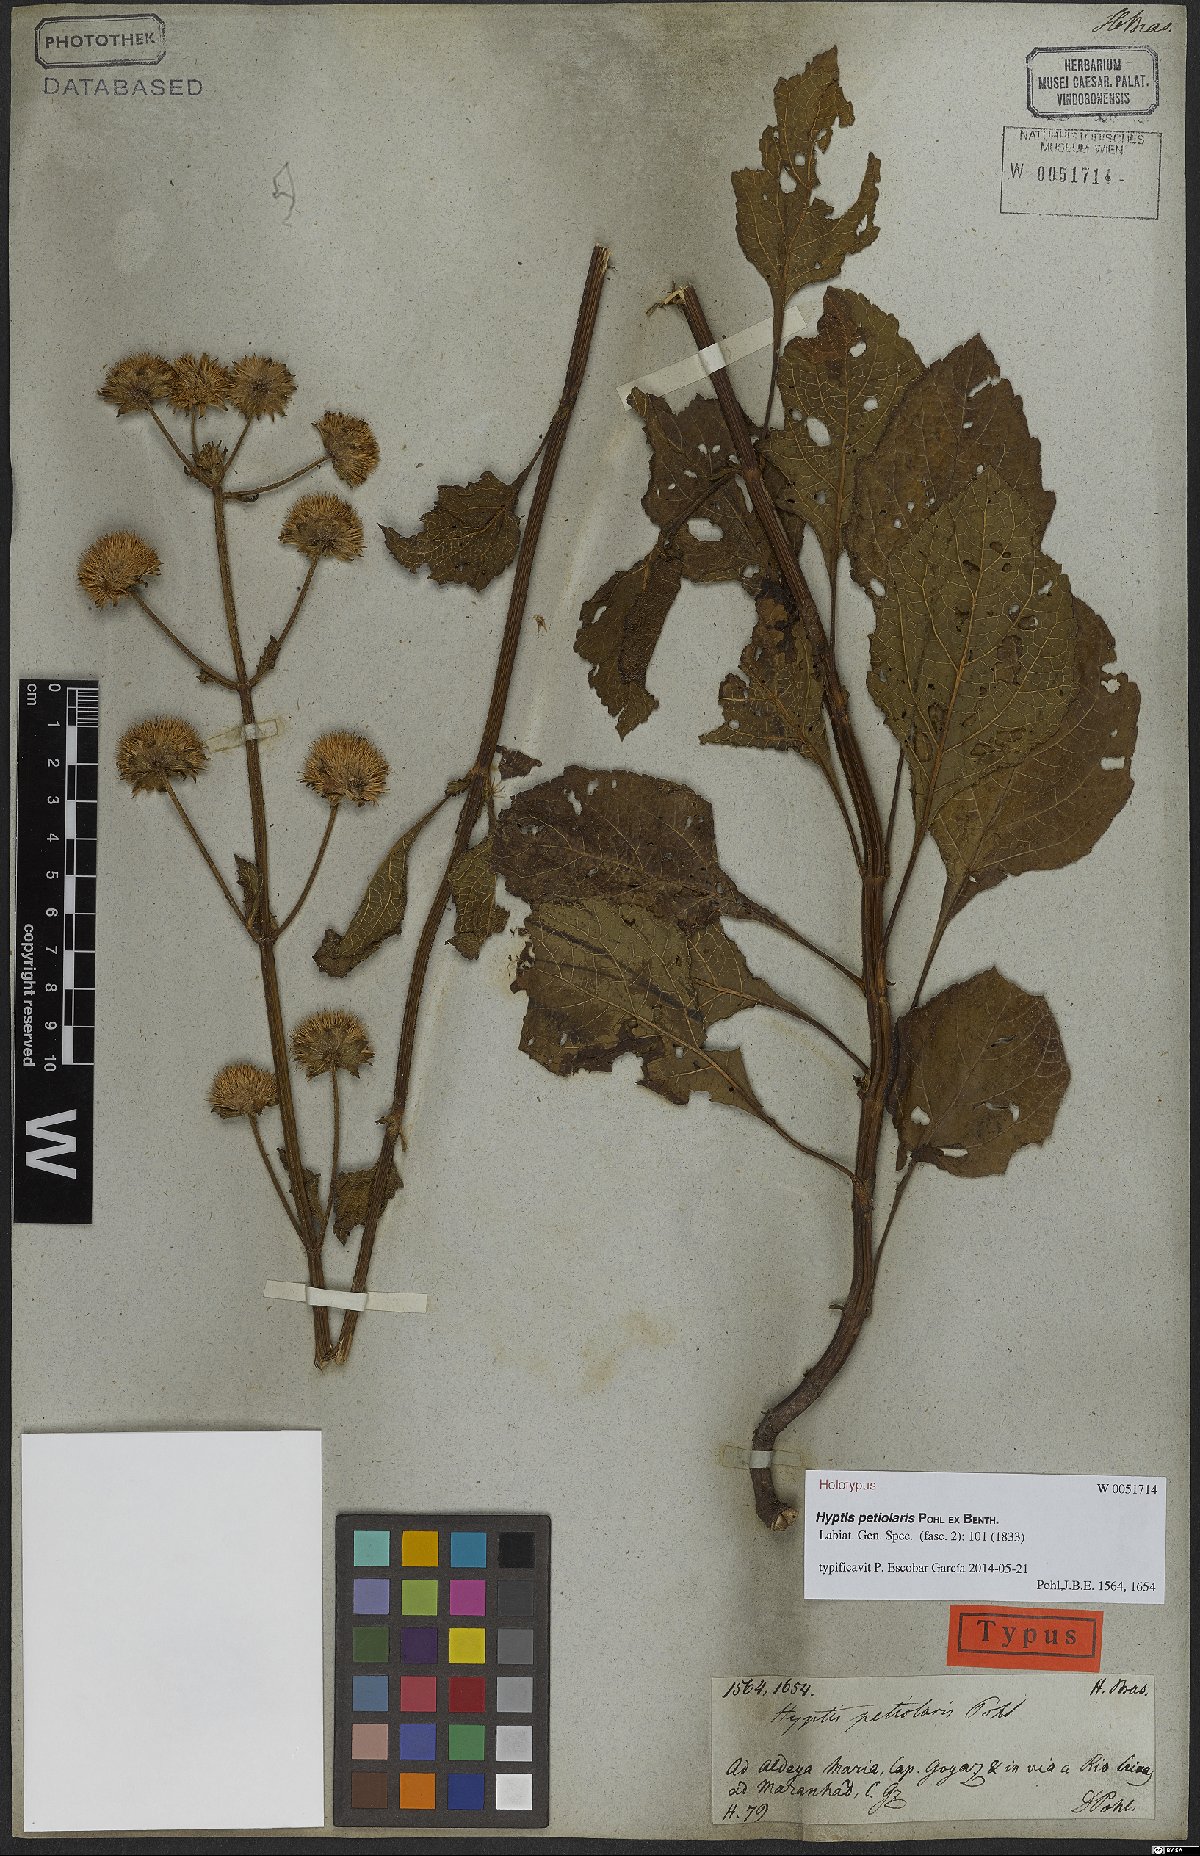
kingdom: Plantae
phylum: Tracheophyta
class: Magnoliopsida
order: Lamiales
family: Lamiaceae
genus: Hyptis
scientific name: Hyptis petiolaris
